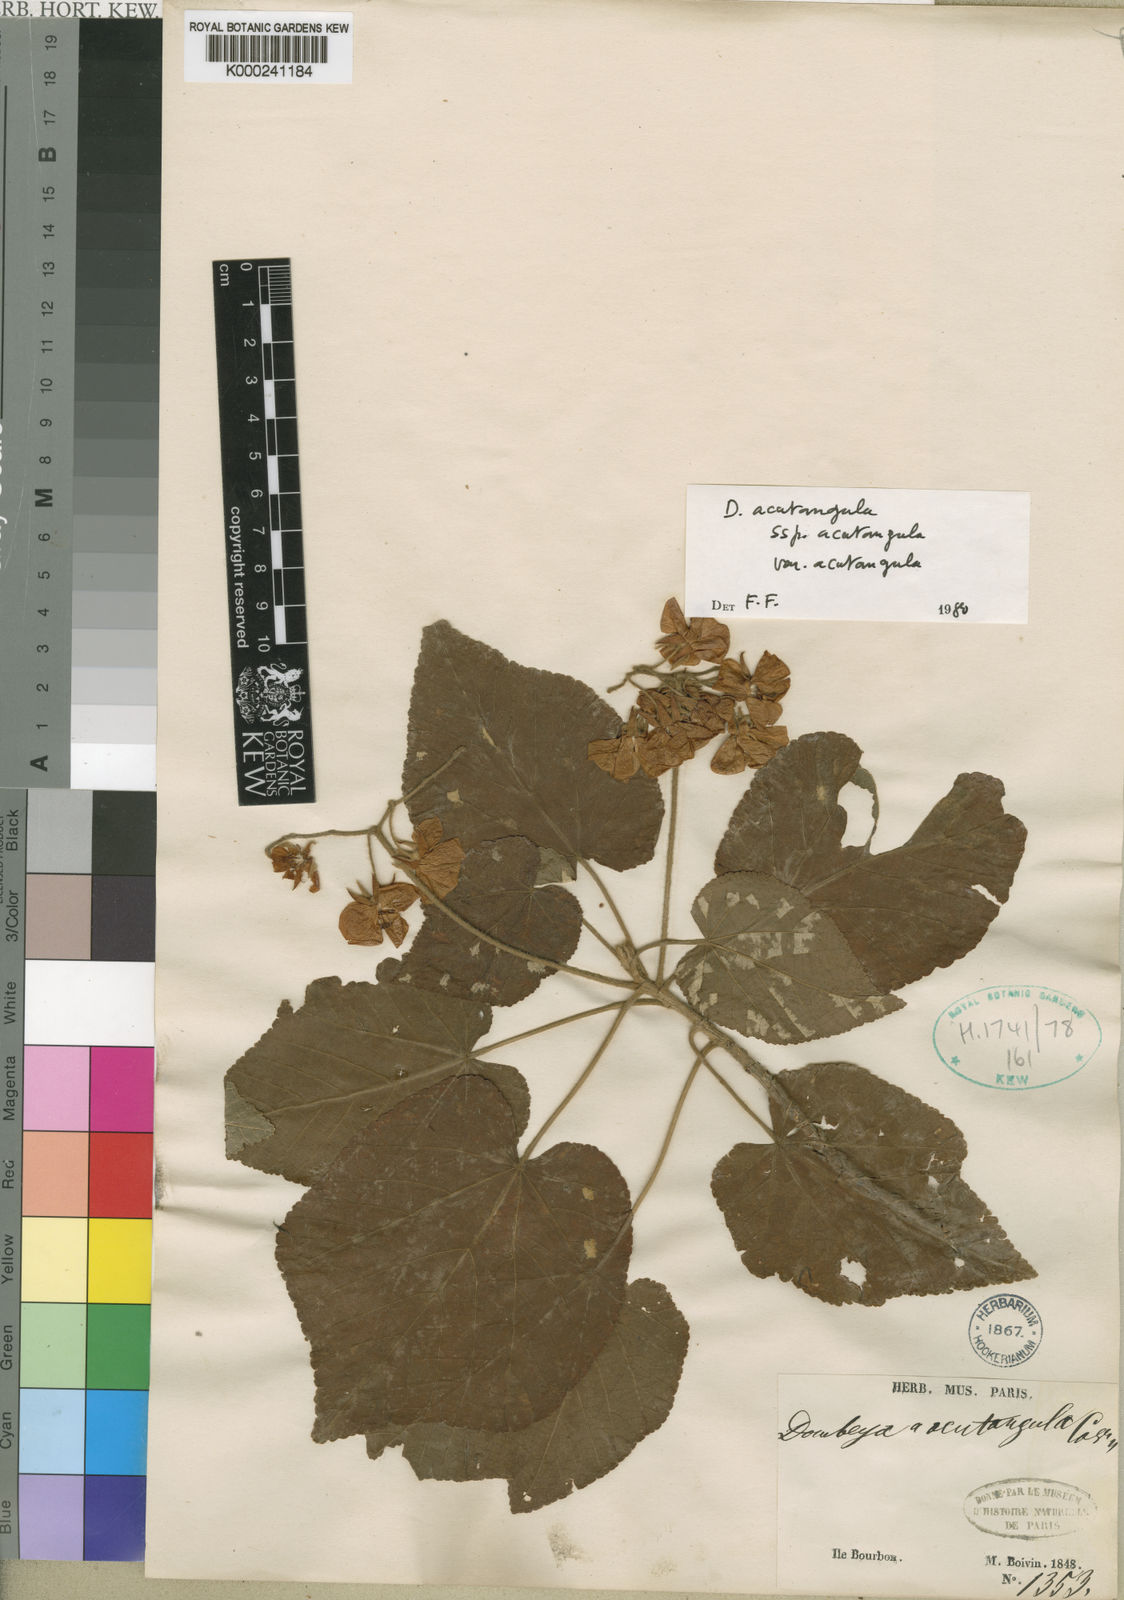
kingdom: Plantae
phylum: Tracheophyta
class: Magnoliopsida
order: Malvales
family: Malvaceae
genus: Dombeya
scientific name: Dombeya acutangula
